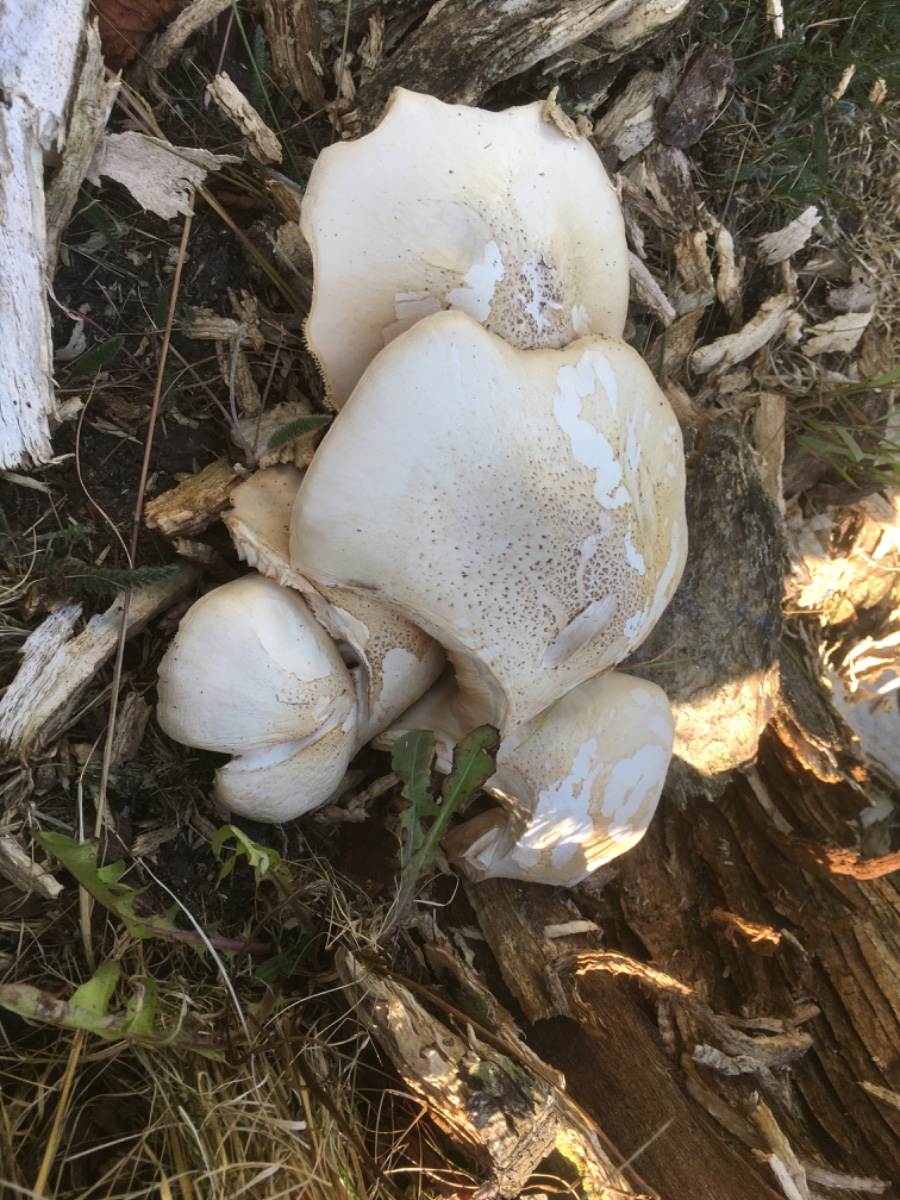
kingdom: Fungi
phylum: Basidiomycota
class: Agaricomycetes
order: Agaricales
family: Pluteaceae
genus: Pluteus
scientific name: Pluteus petasatus
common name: savsmulds-skærmhat
